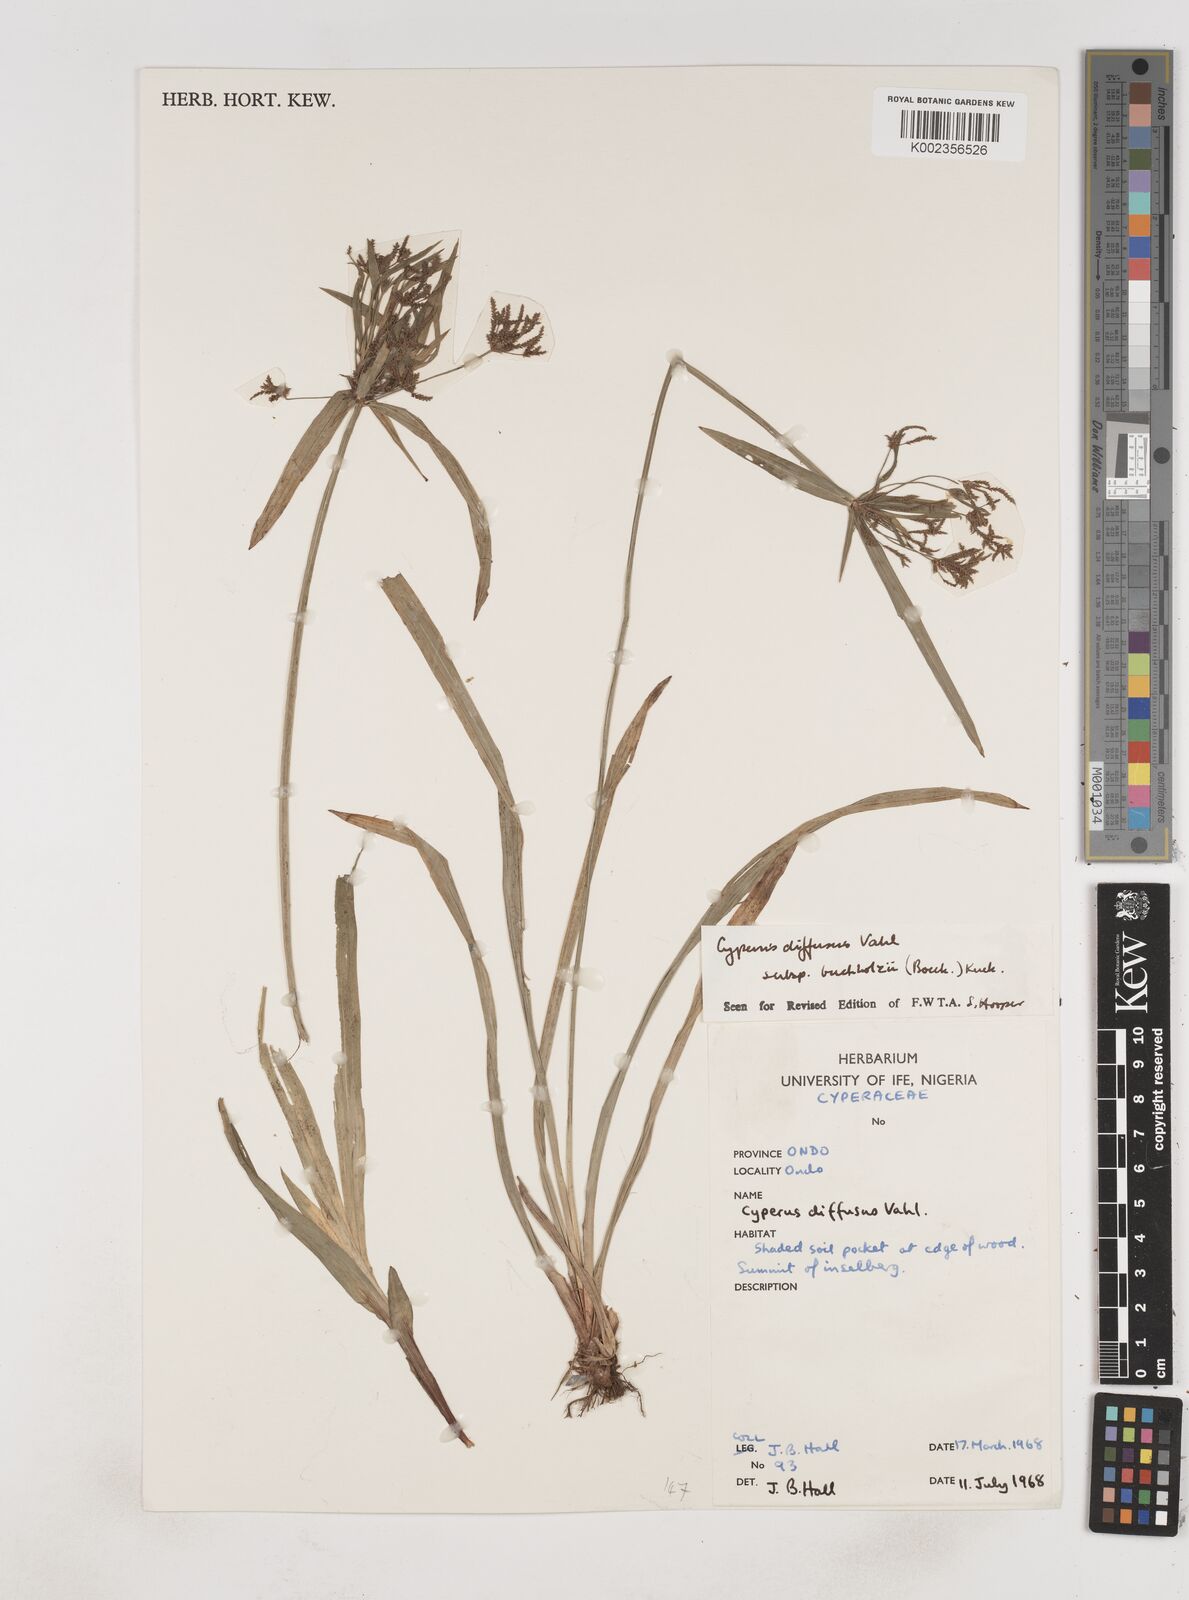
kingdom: Plantae
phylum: Tracheophyta
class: Liliopsida
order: Poales
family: Cyperaceae
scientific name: Cyperaceae
